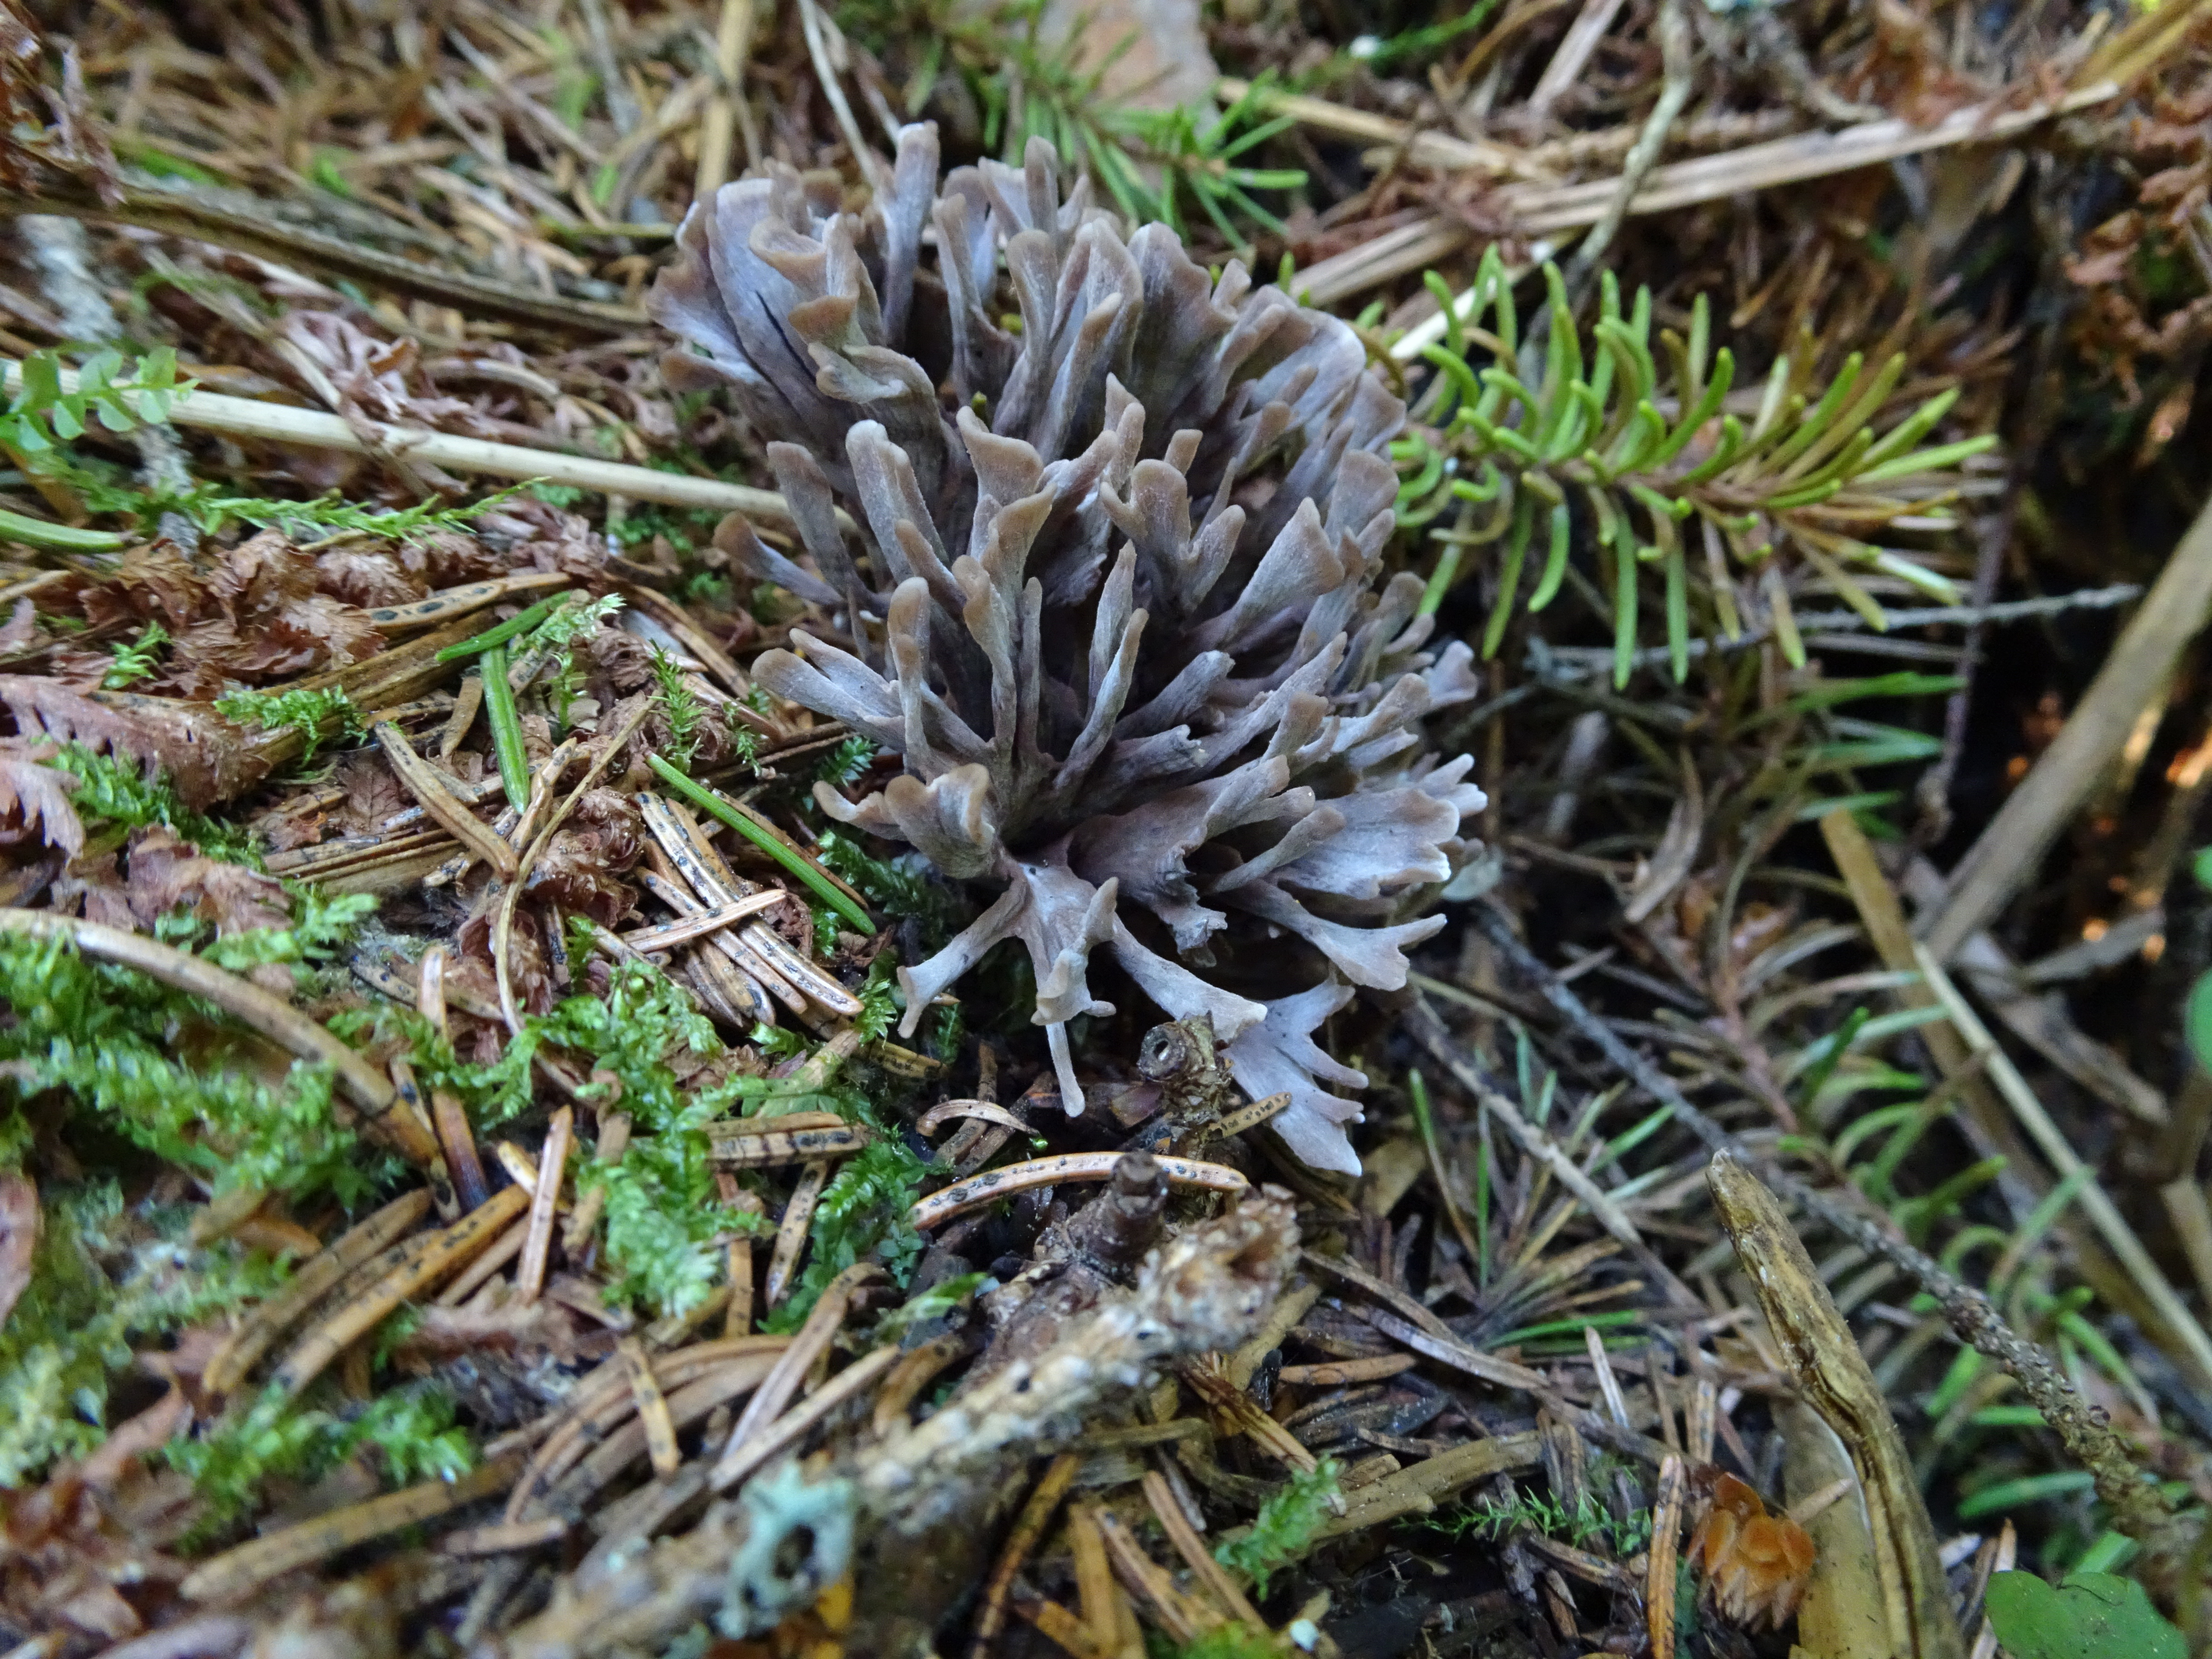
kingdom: Fungi
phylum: Basidiomycota
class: Agaricomycetes
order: Thelephorales
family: Thelephoraceae
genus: Thelephora
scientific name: Thelephora palmata
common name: Stinking earthfan
